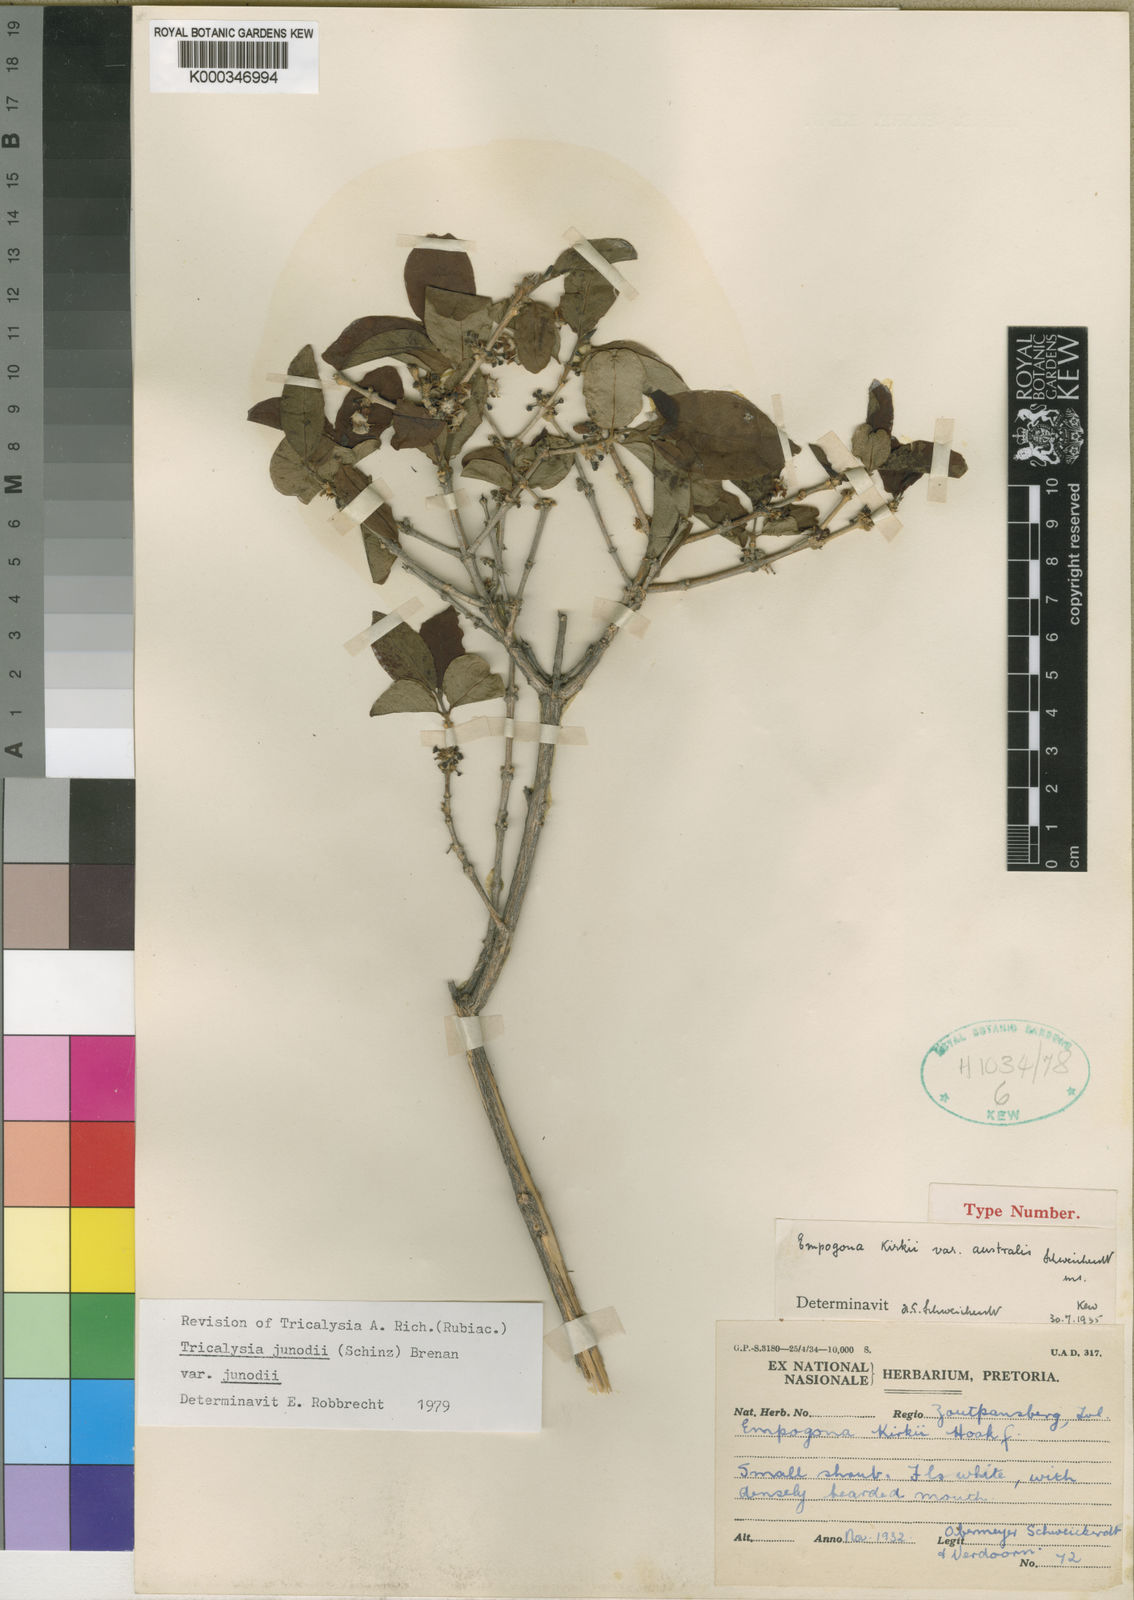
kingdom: Plantae
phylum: Tracheophyta
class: Magnoliopsida
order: Gentianales
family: Rubiaceae
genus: Empogona
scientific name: Empogona kirkii
